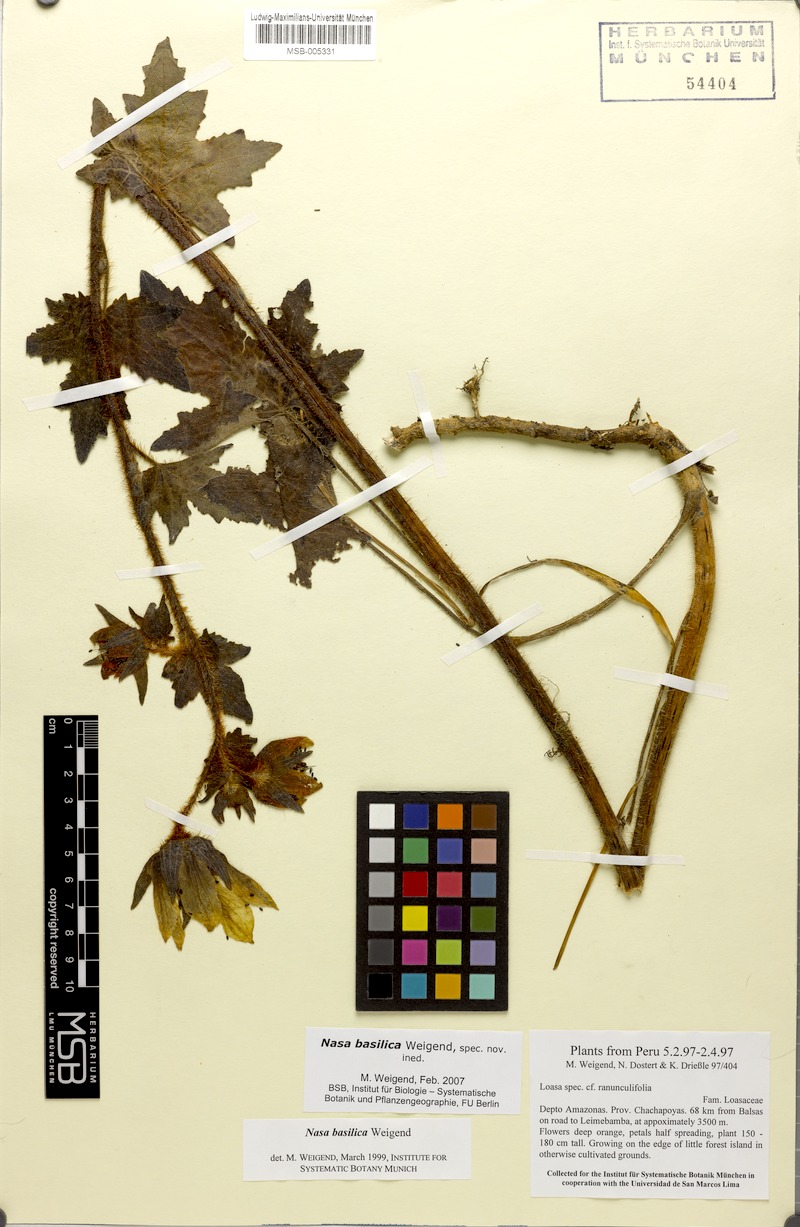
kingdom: Plantae
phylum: Tracheophyta
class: Magnoliopsida
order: Cornales
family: Loasaceae
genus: Nasa
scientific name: Nasa basilica
